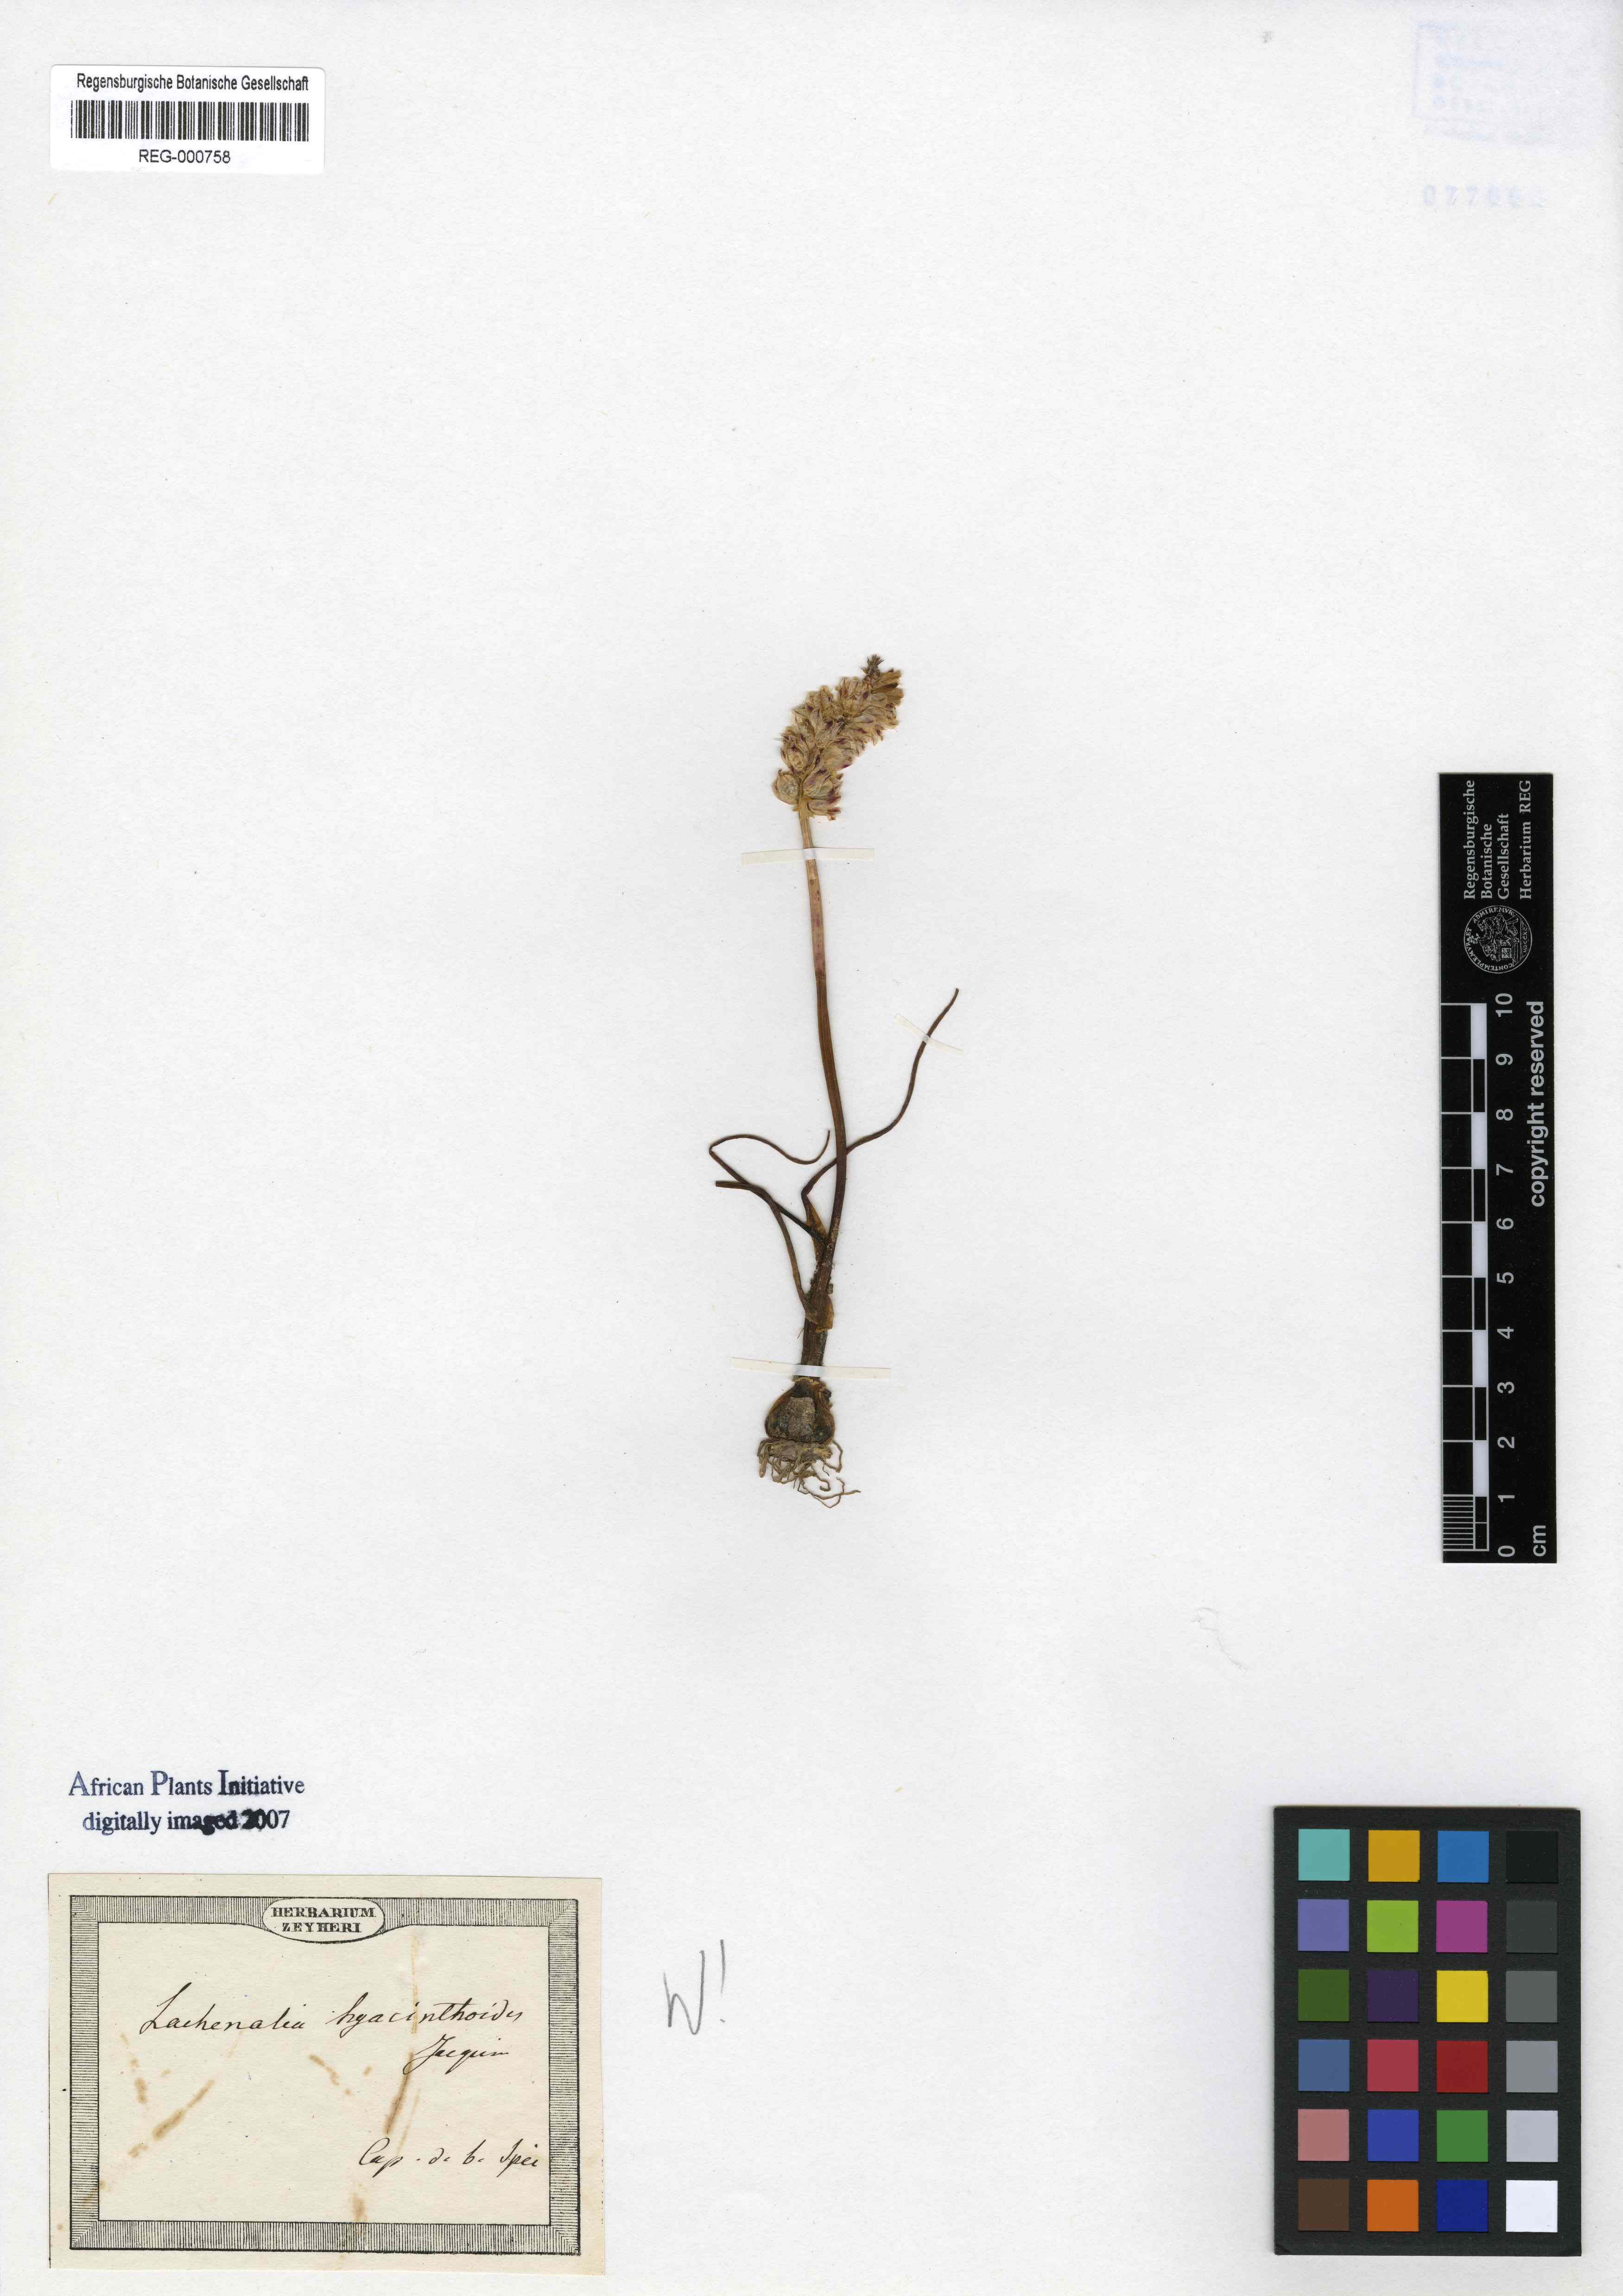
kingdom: Plantae
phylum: Tracheophyta
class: Liliopsida
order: Asparagales
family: Asparagaceae
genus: Lachenalia
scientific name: Lachenalia contaminata
